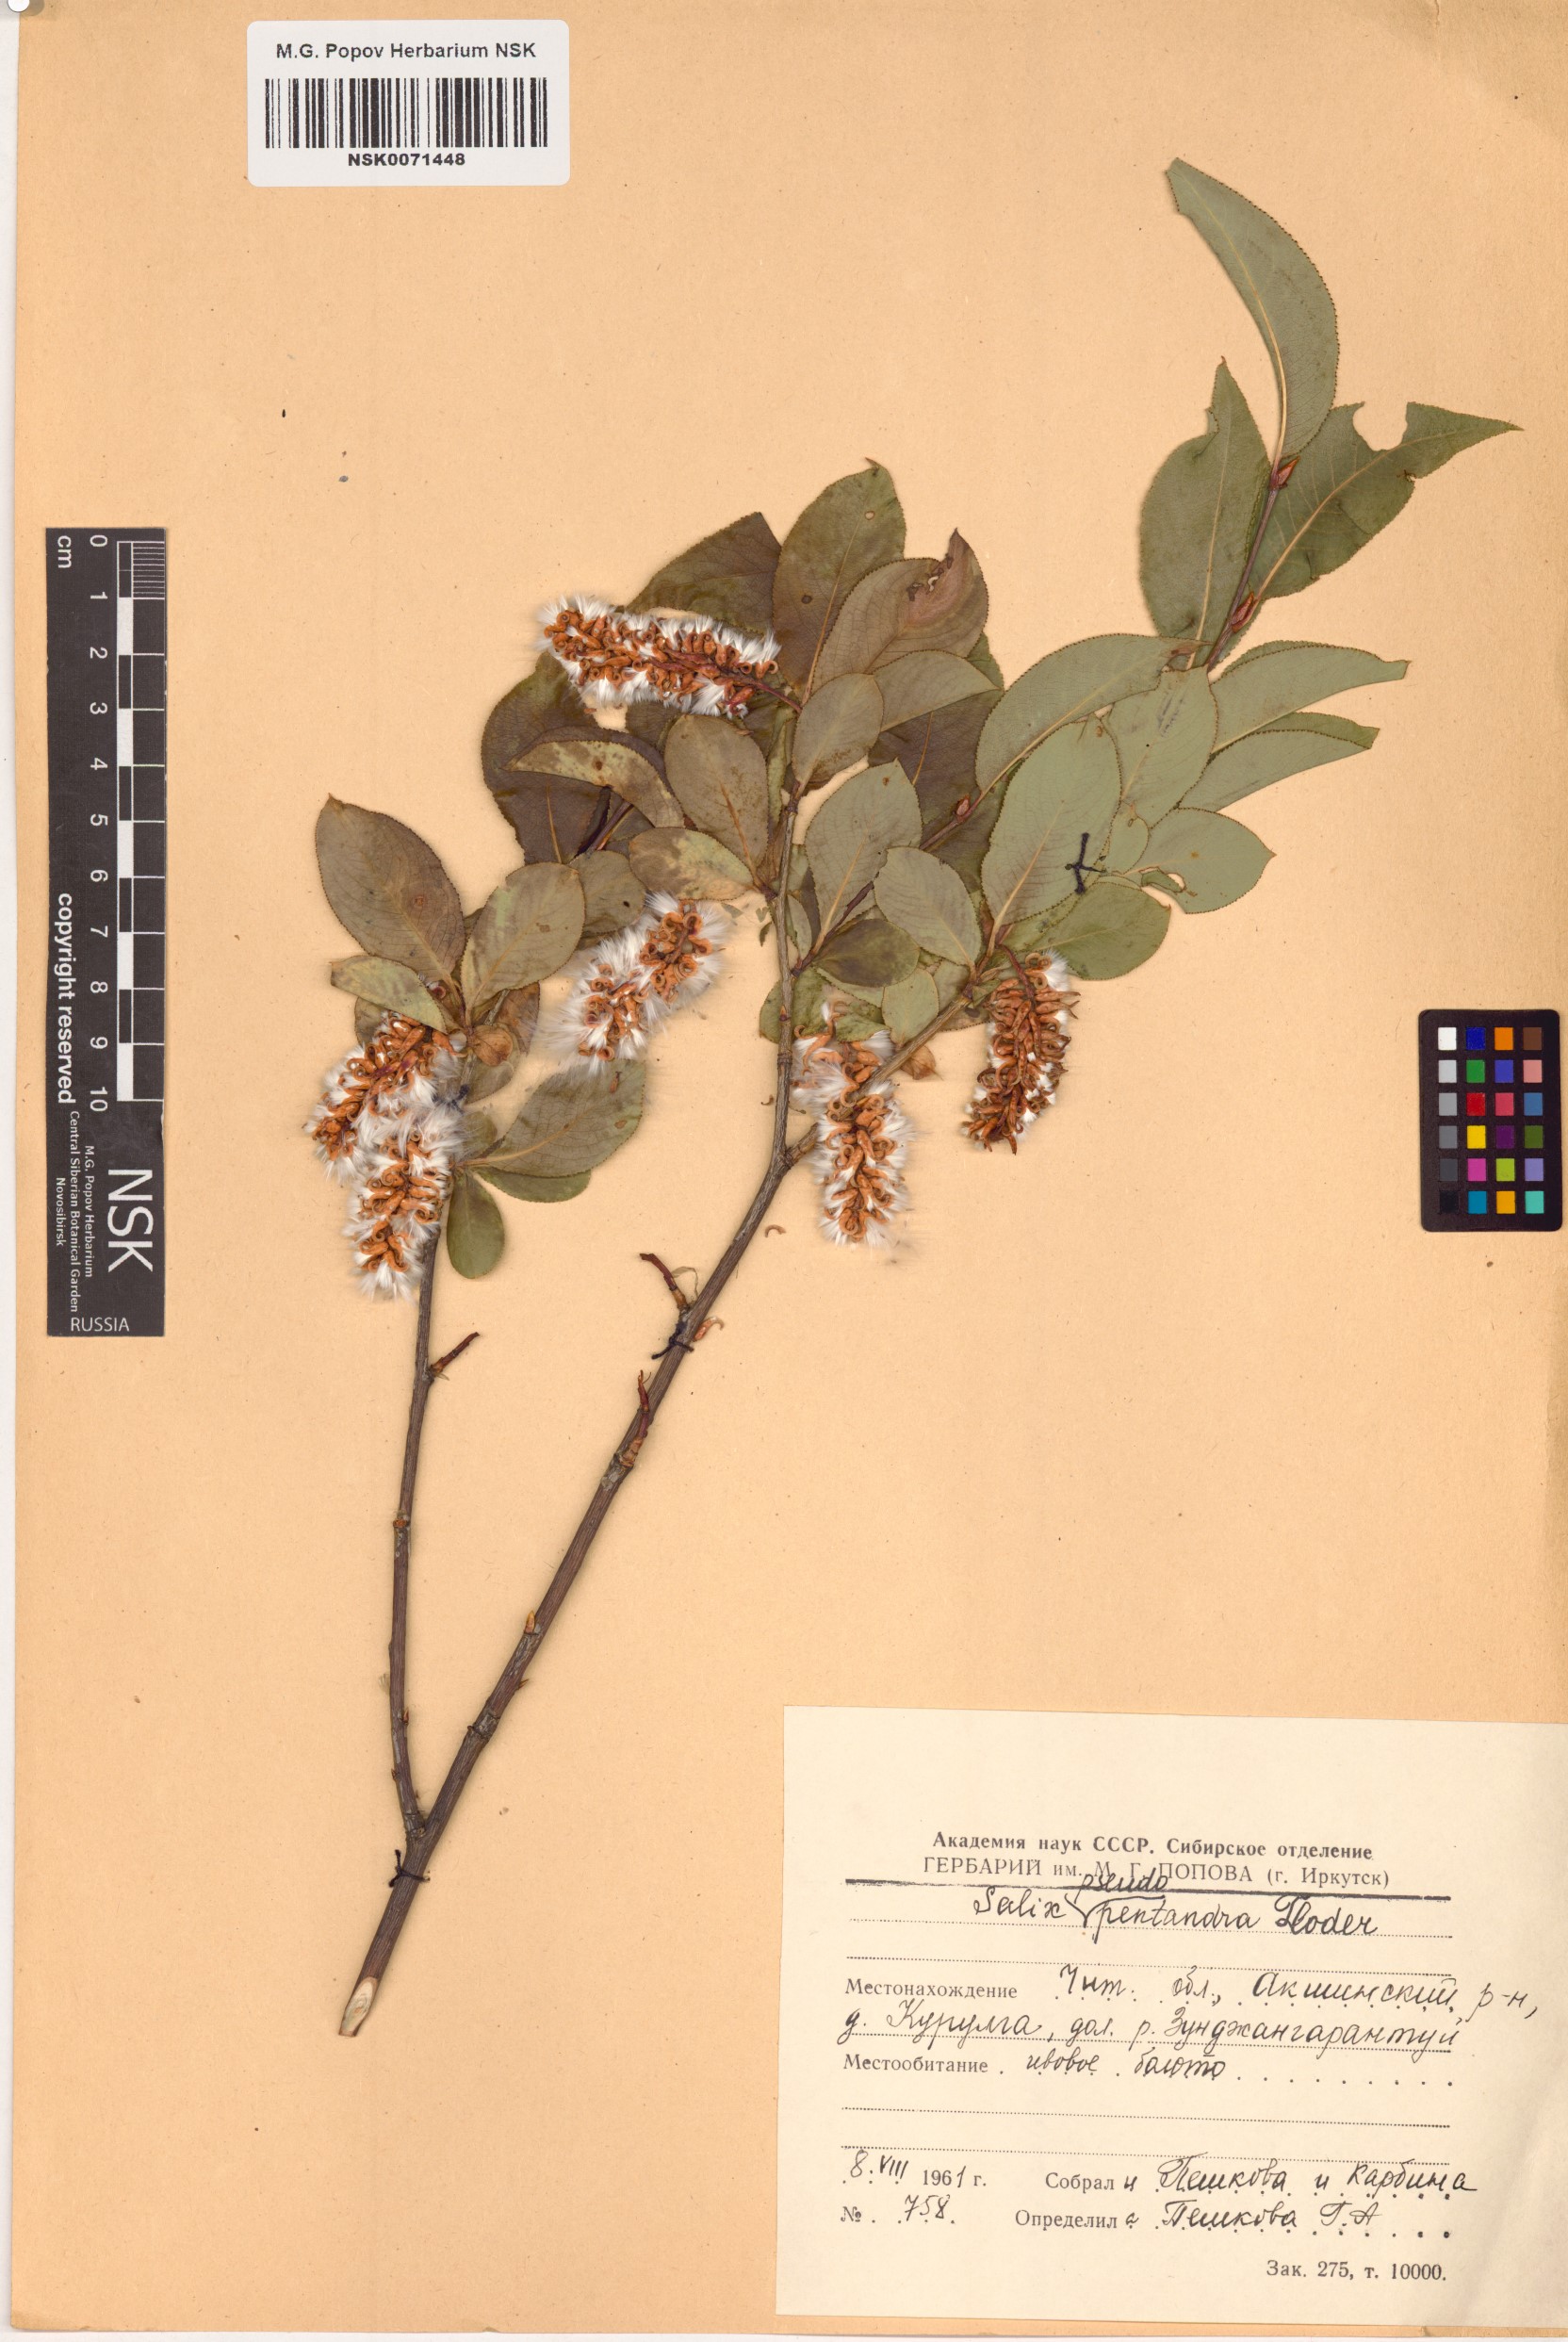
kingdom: Plantae
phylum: Tracheophyta
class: Magnoliopsida
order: Malpighiales
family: Salicaceae
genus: Salix
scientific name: Salix pseudopentandra
